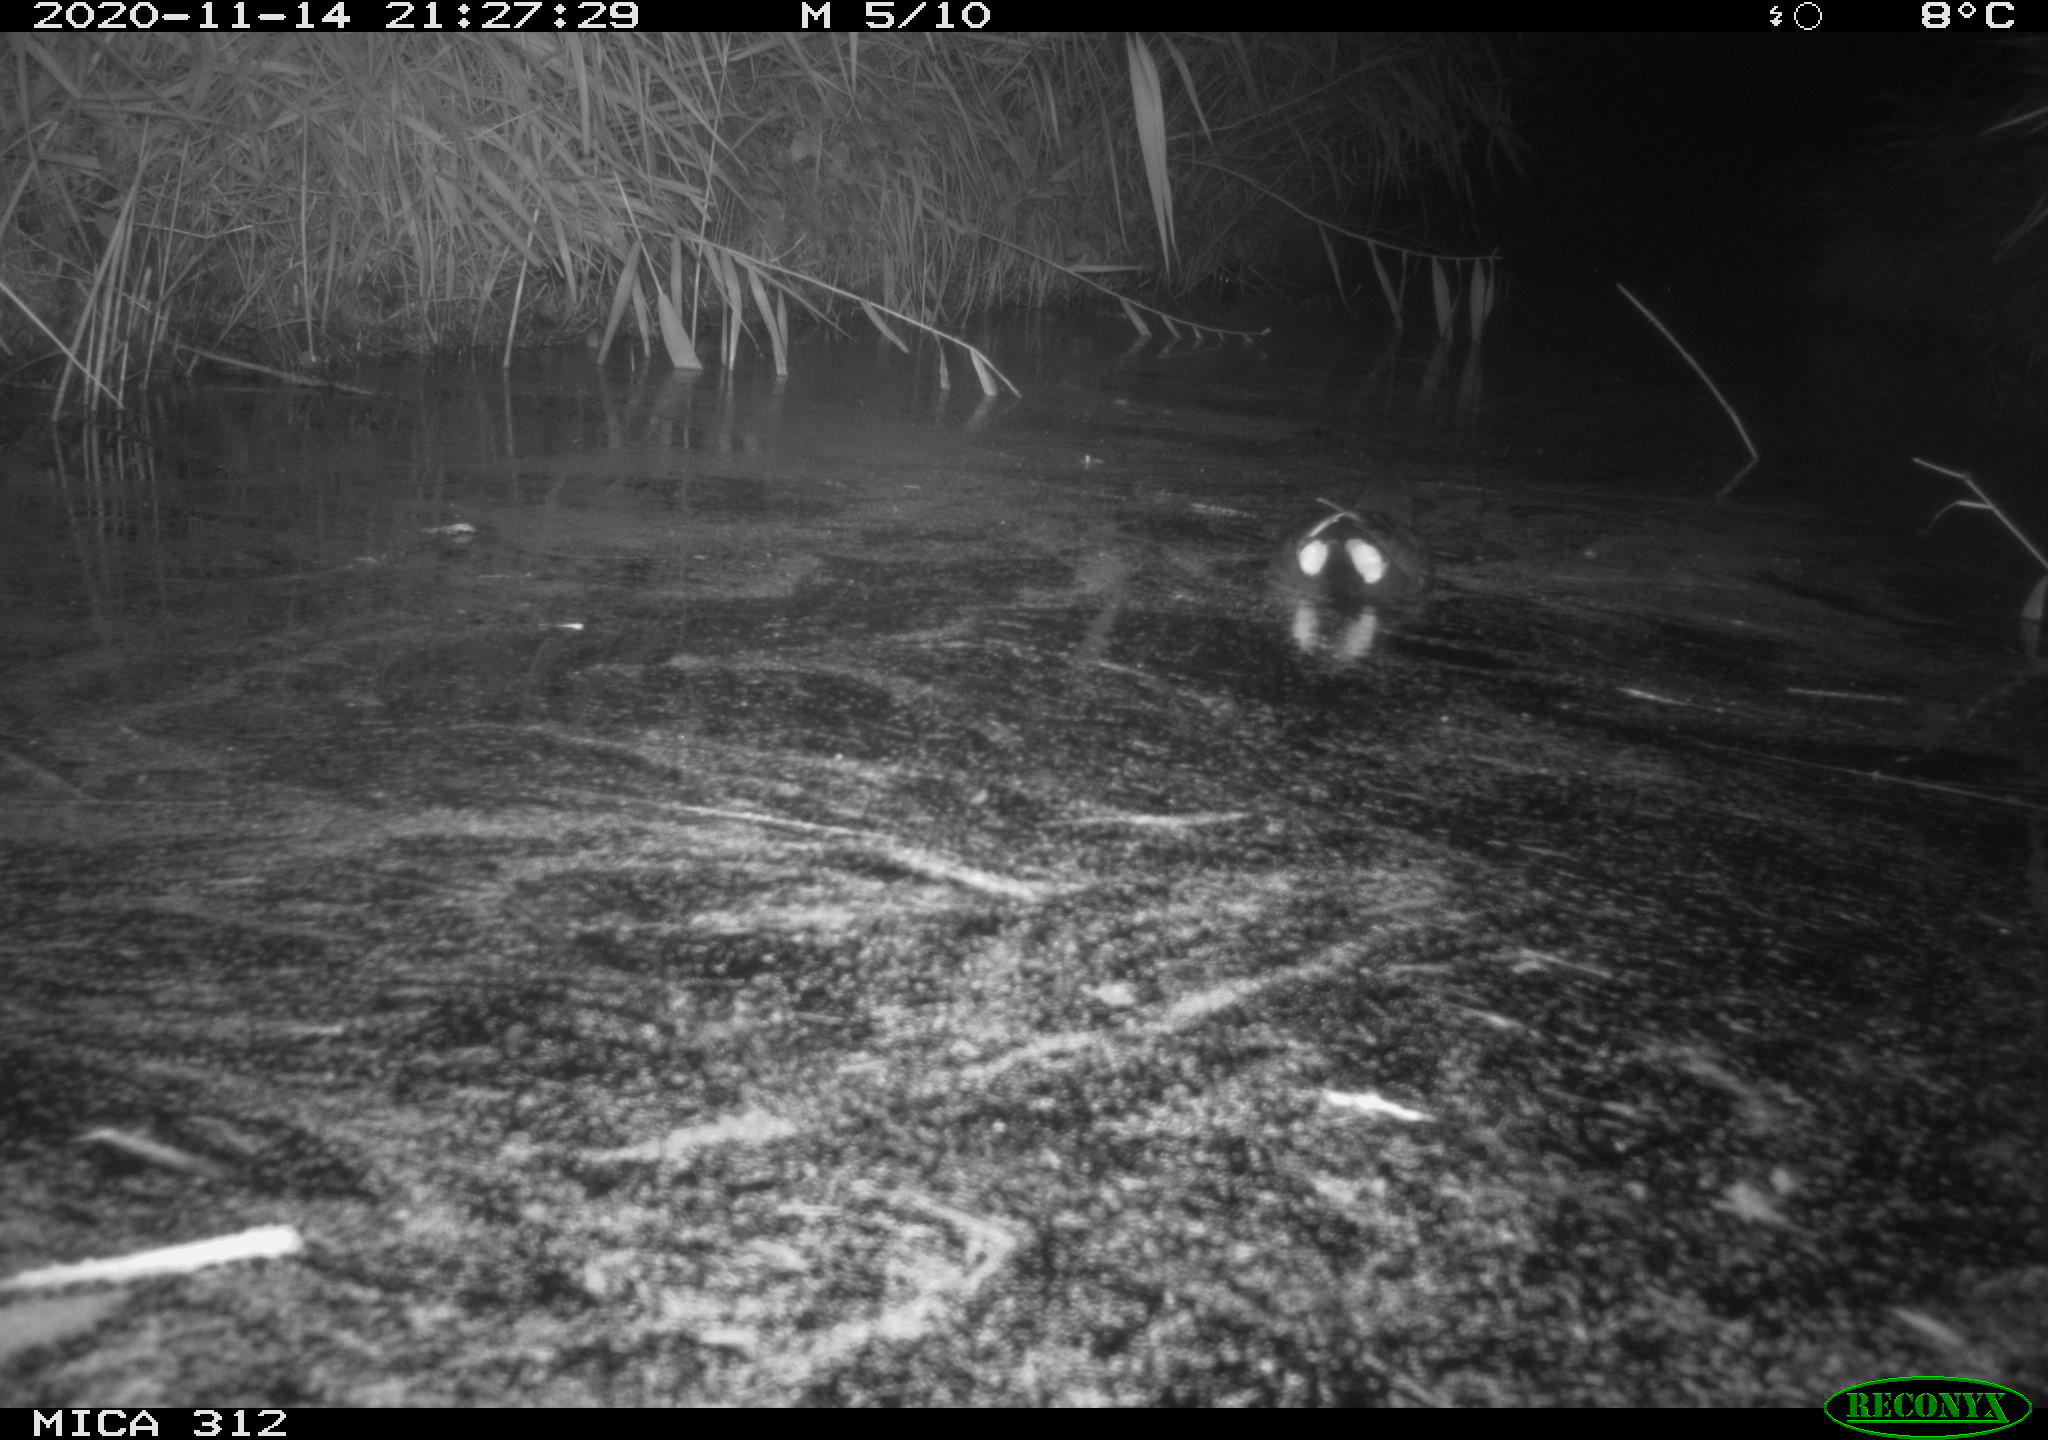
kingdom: Animalia
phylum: Chordata
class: Aves
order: Gruiformes
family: Rallidae
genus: Gallinula
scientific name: Gallinula chloropus
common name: Common moorhen
